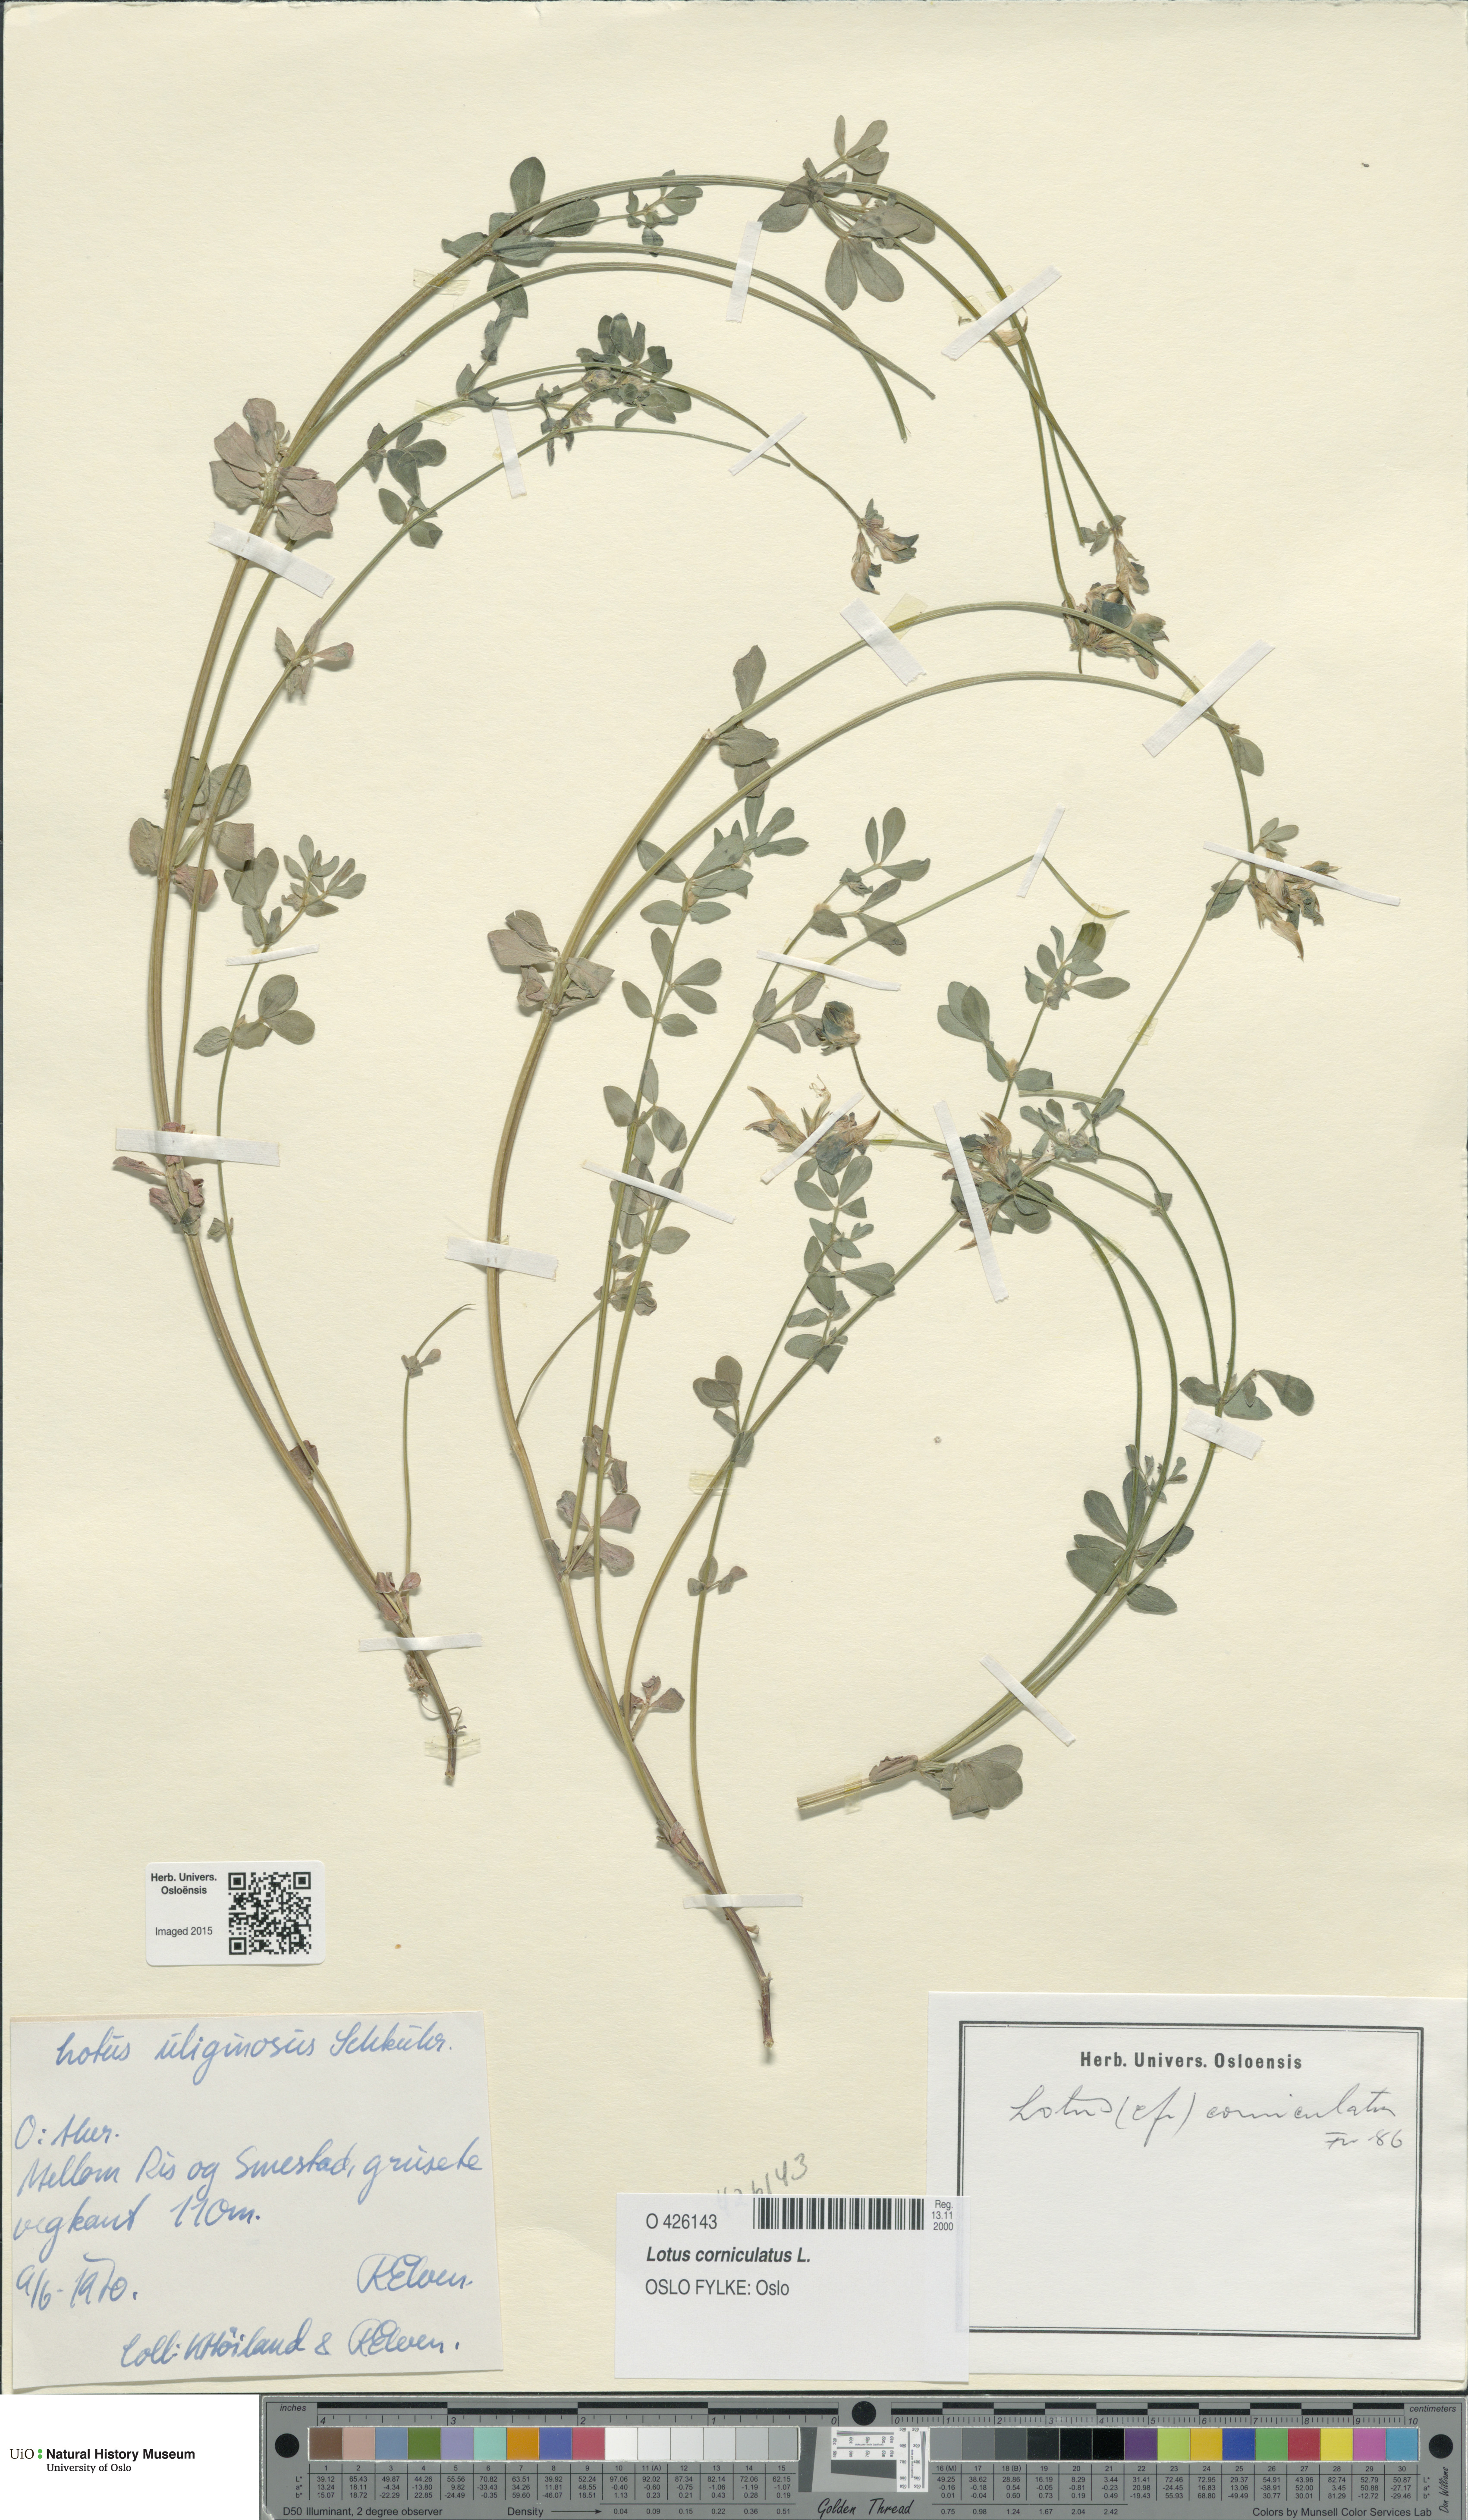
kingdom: Plantae
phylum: Tracheophyta
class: Magnoliopsida
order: Fabales
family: Fabaceae
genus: Lotus
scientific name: Lotus corniculatus
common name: Common bird's-foot-trefoil
